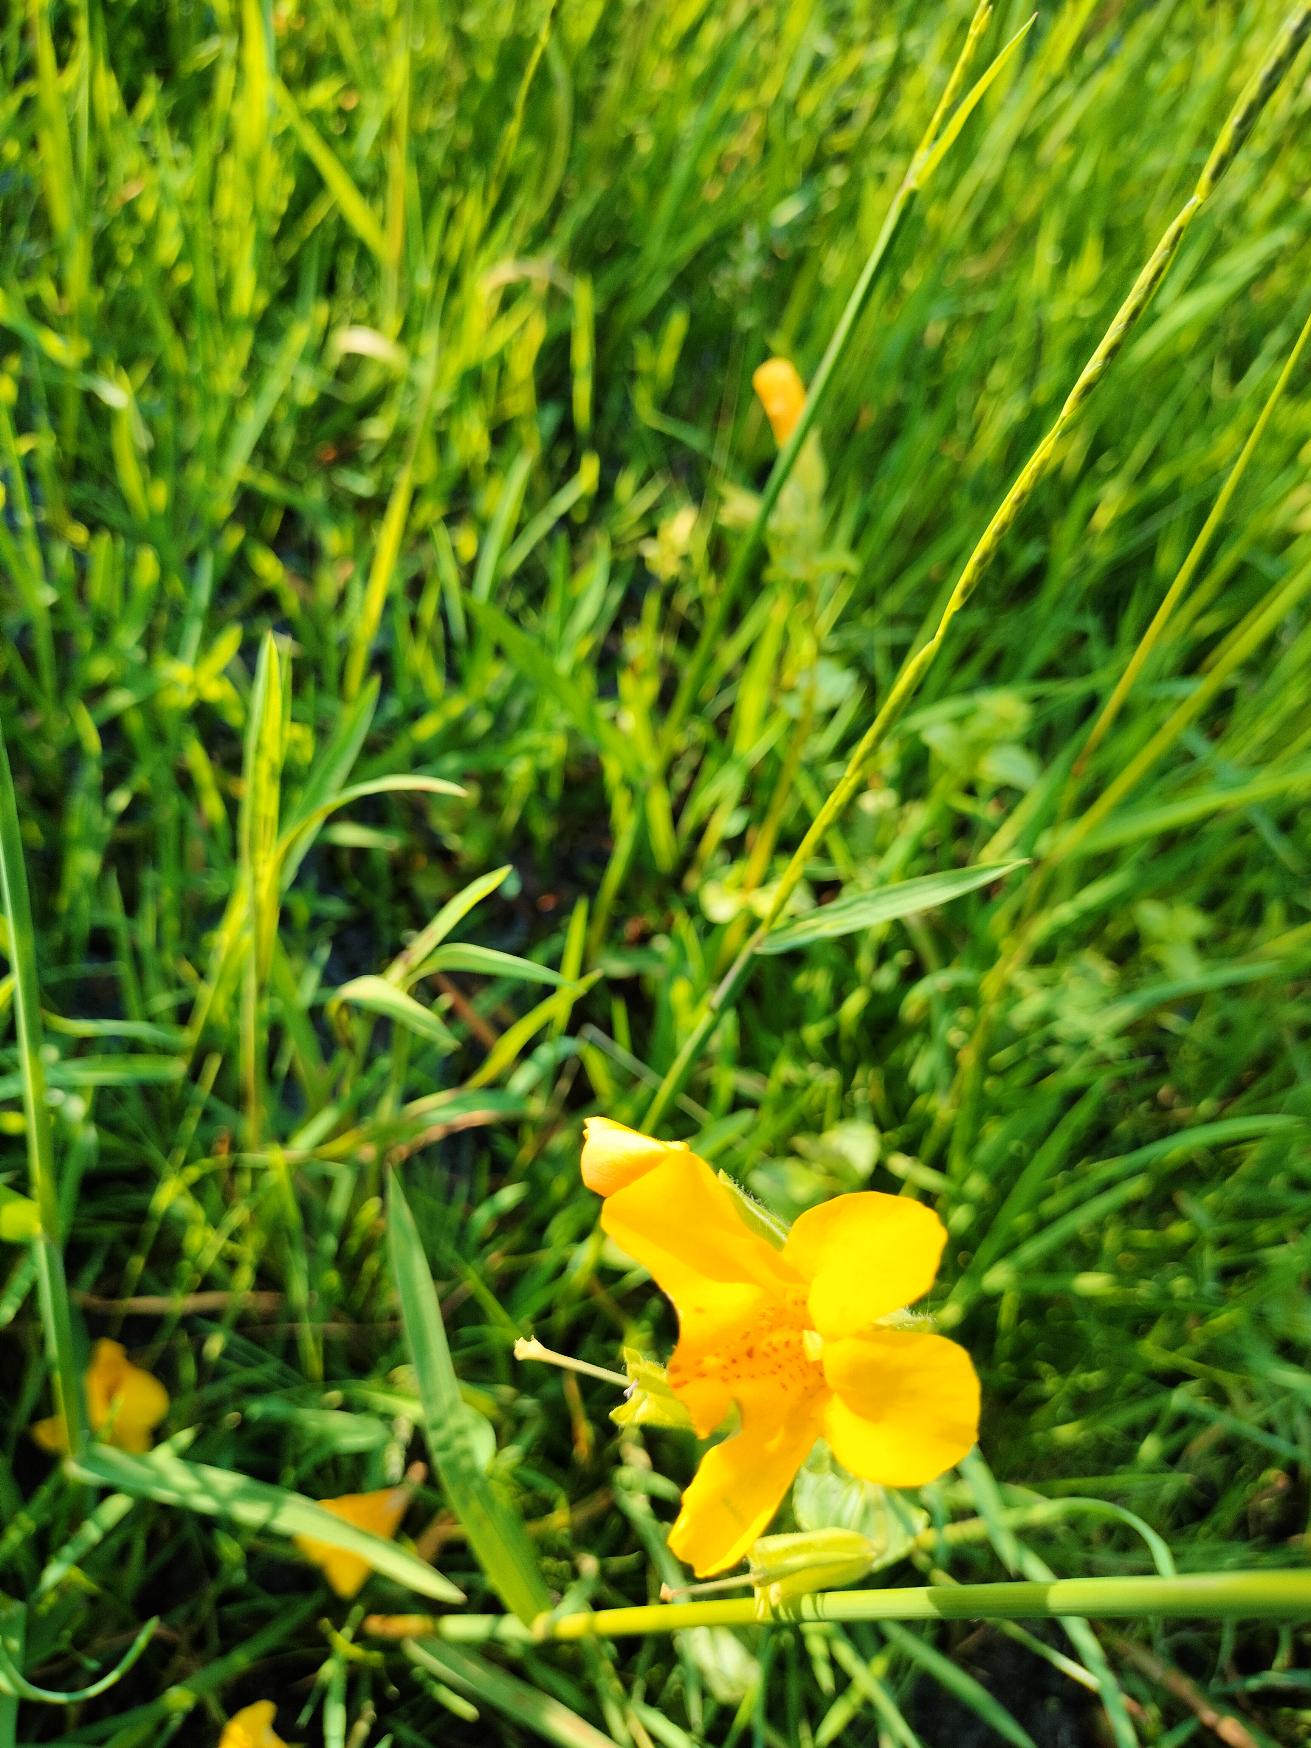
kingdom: Plantae
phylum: Tracheophyta
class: Magnoliopsida
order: Lamiales
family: Phrymaceae
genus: Erythranthe
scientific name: Erythranthe guttata
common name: Abeblomst
